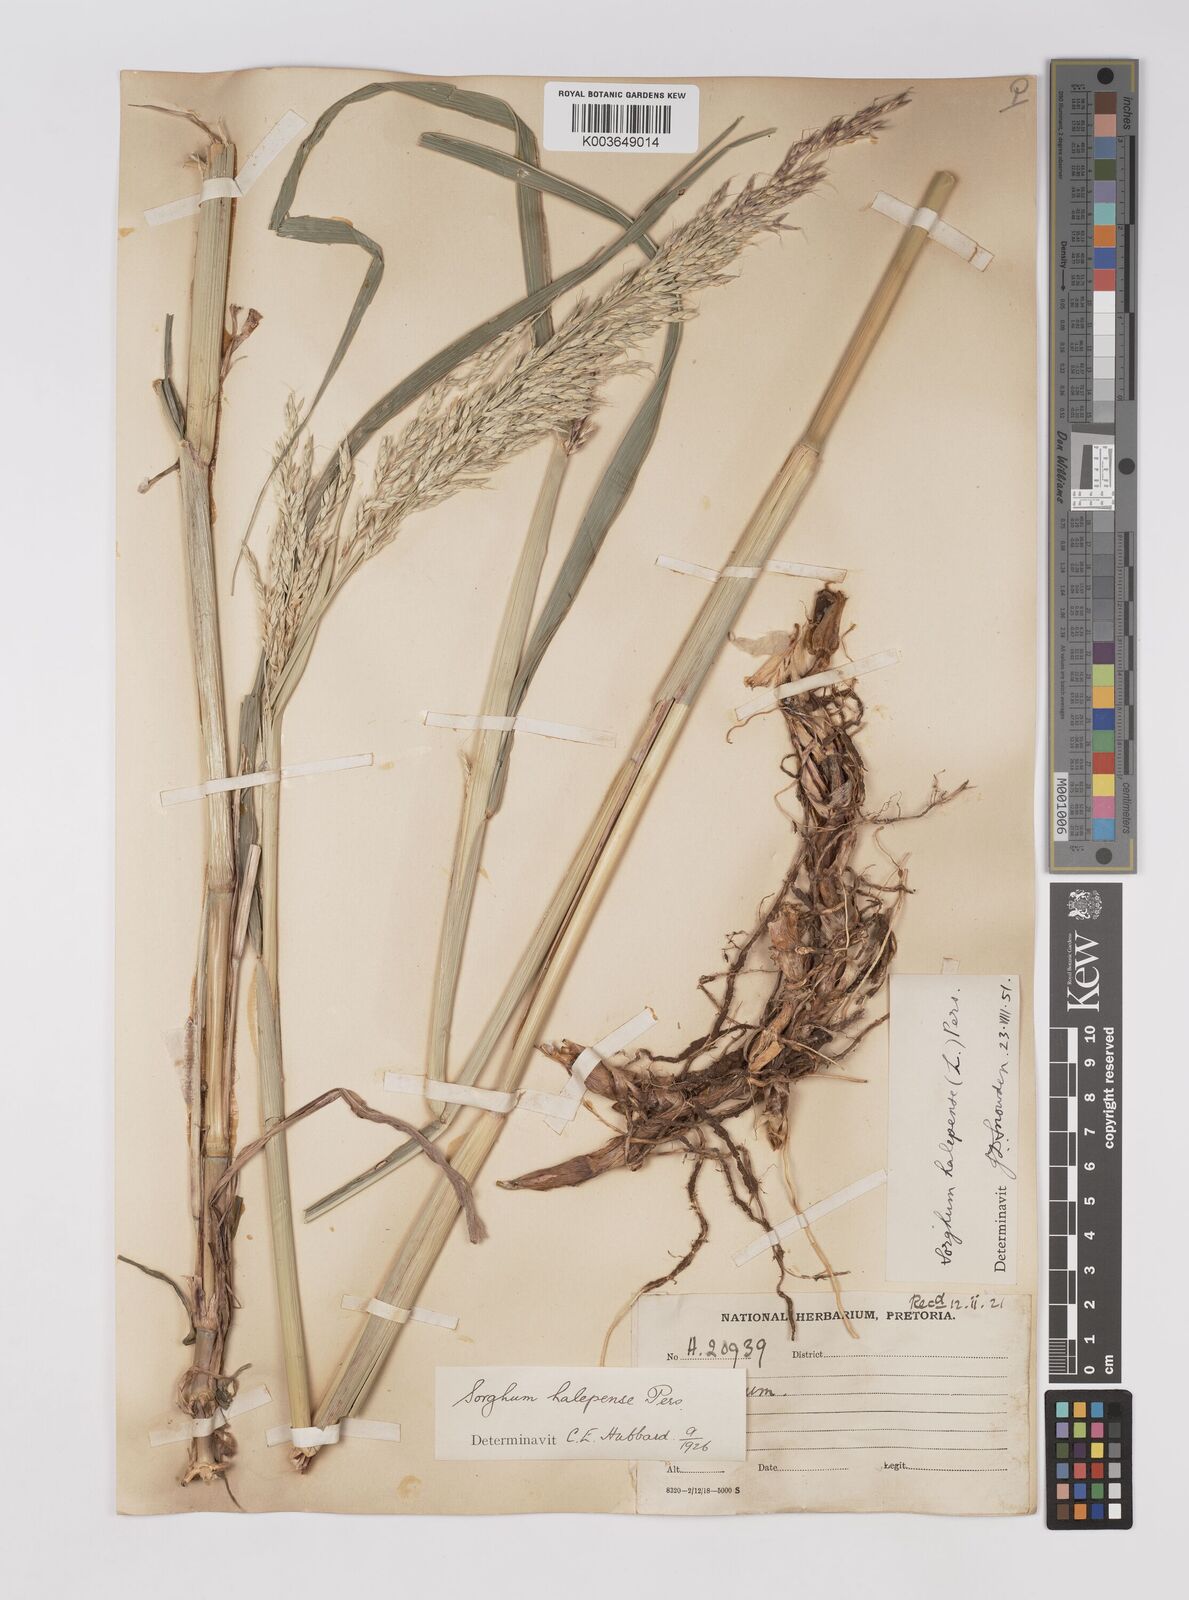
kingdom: Plantae
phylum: Tracheophyta
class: Liliopsida
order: Poales
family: Poaceae
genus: Sorghum
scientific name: Sorghum halepense
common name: Johnson-grass
